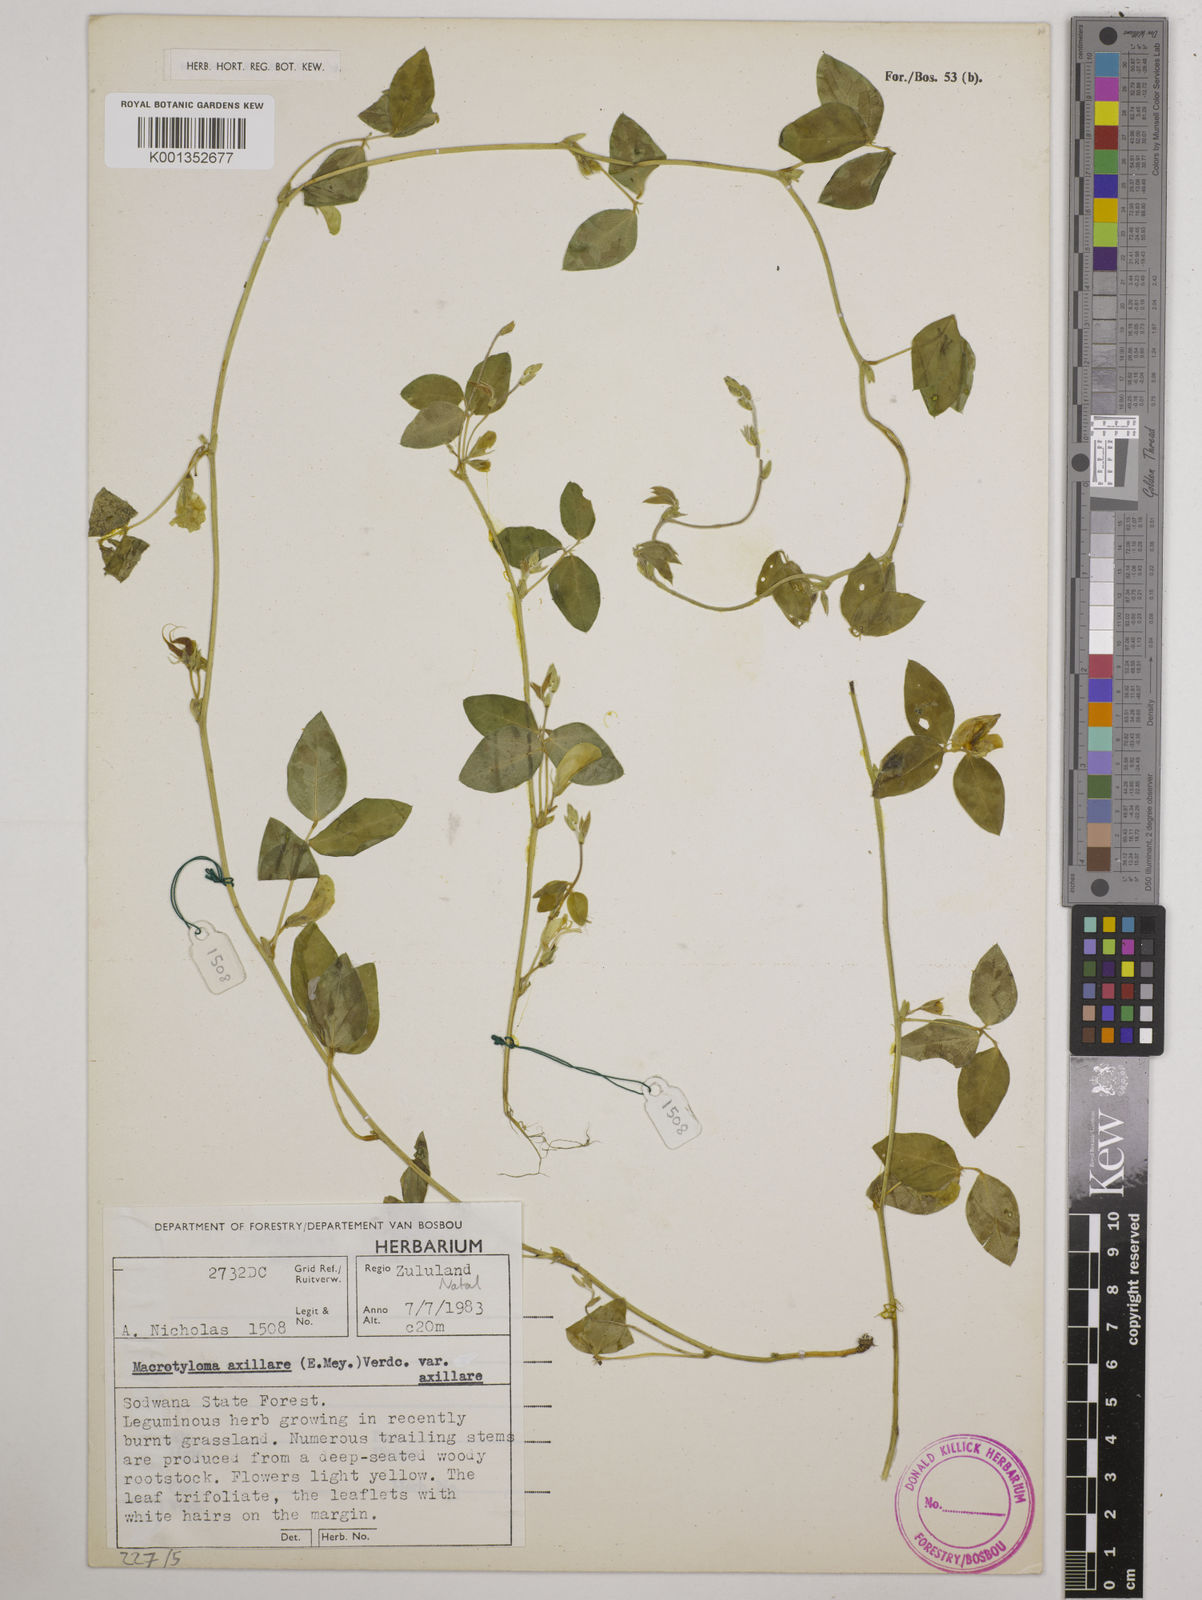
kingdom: Plantae
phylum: Tracheophyta
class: Magnoliopsida
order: Fabales
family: Fabaceae
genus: Macrotyloma
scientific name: Macrotyloma axillare
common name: Perennial horsegram
